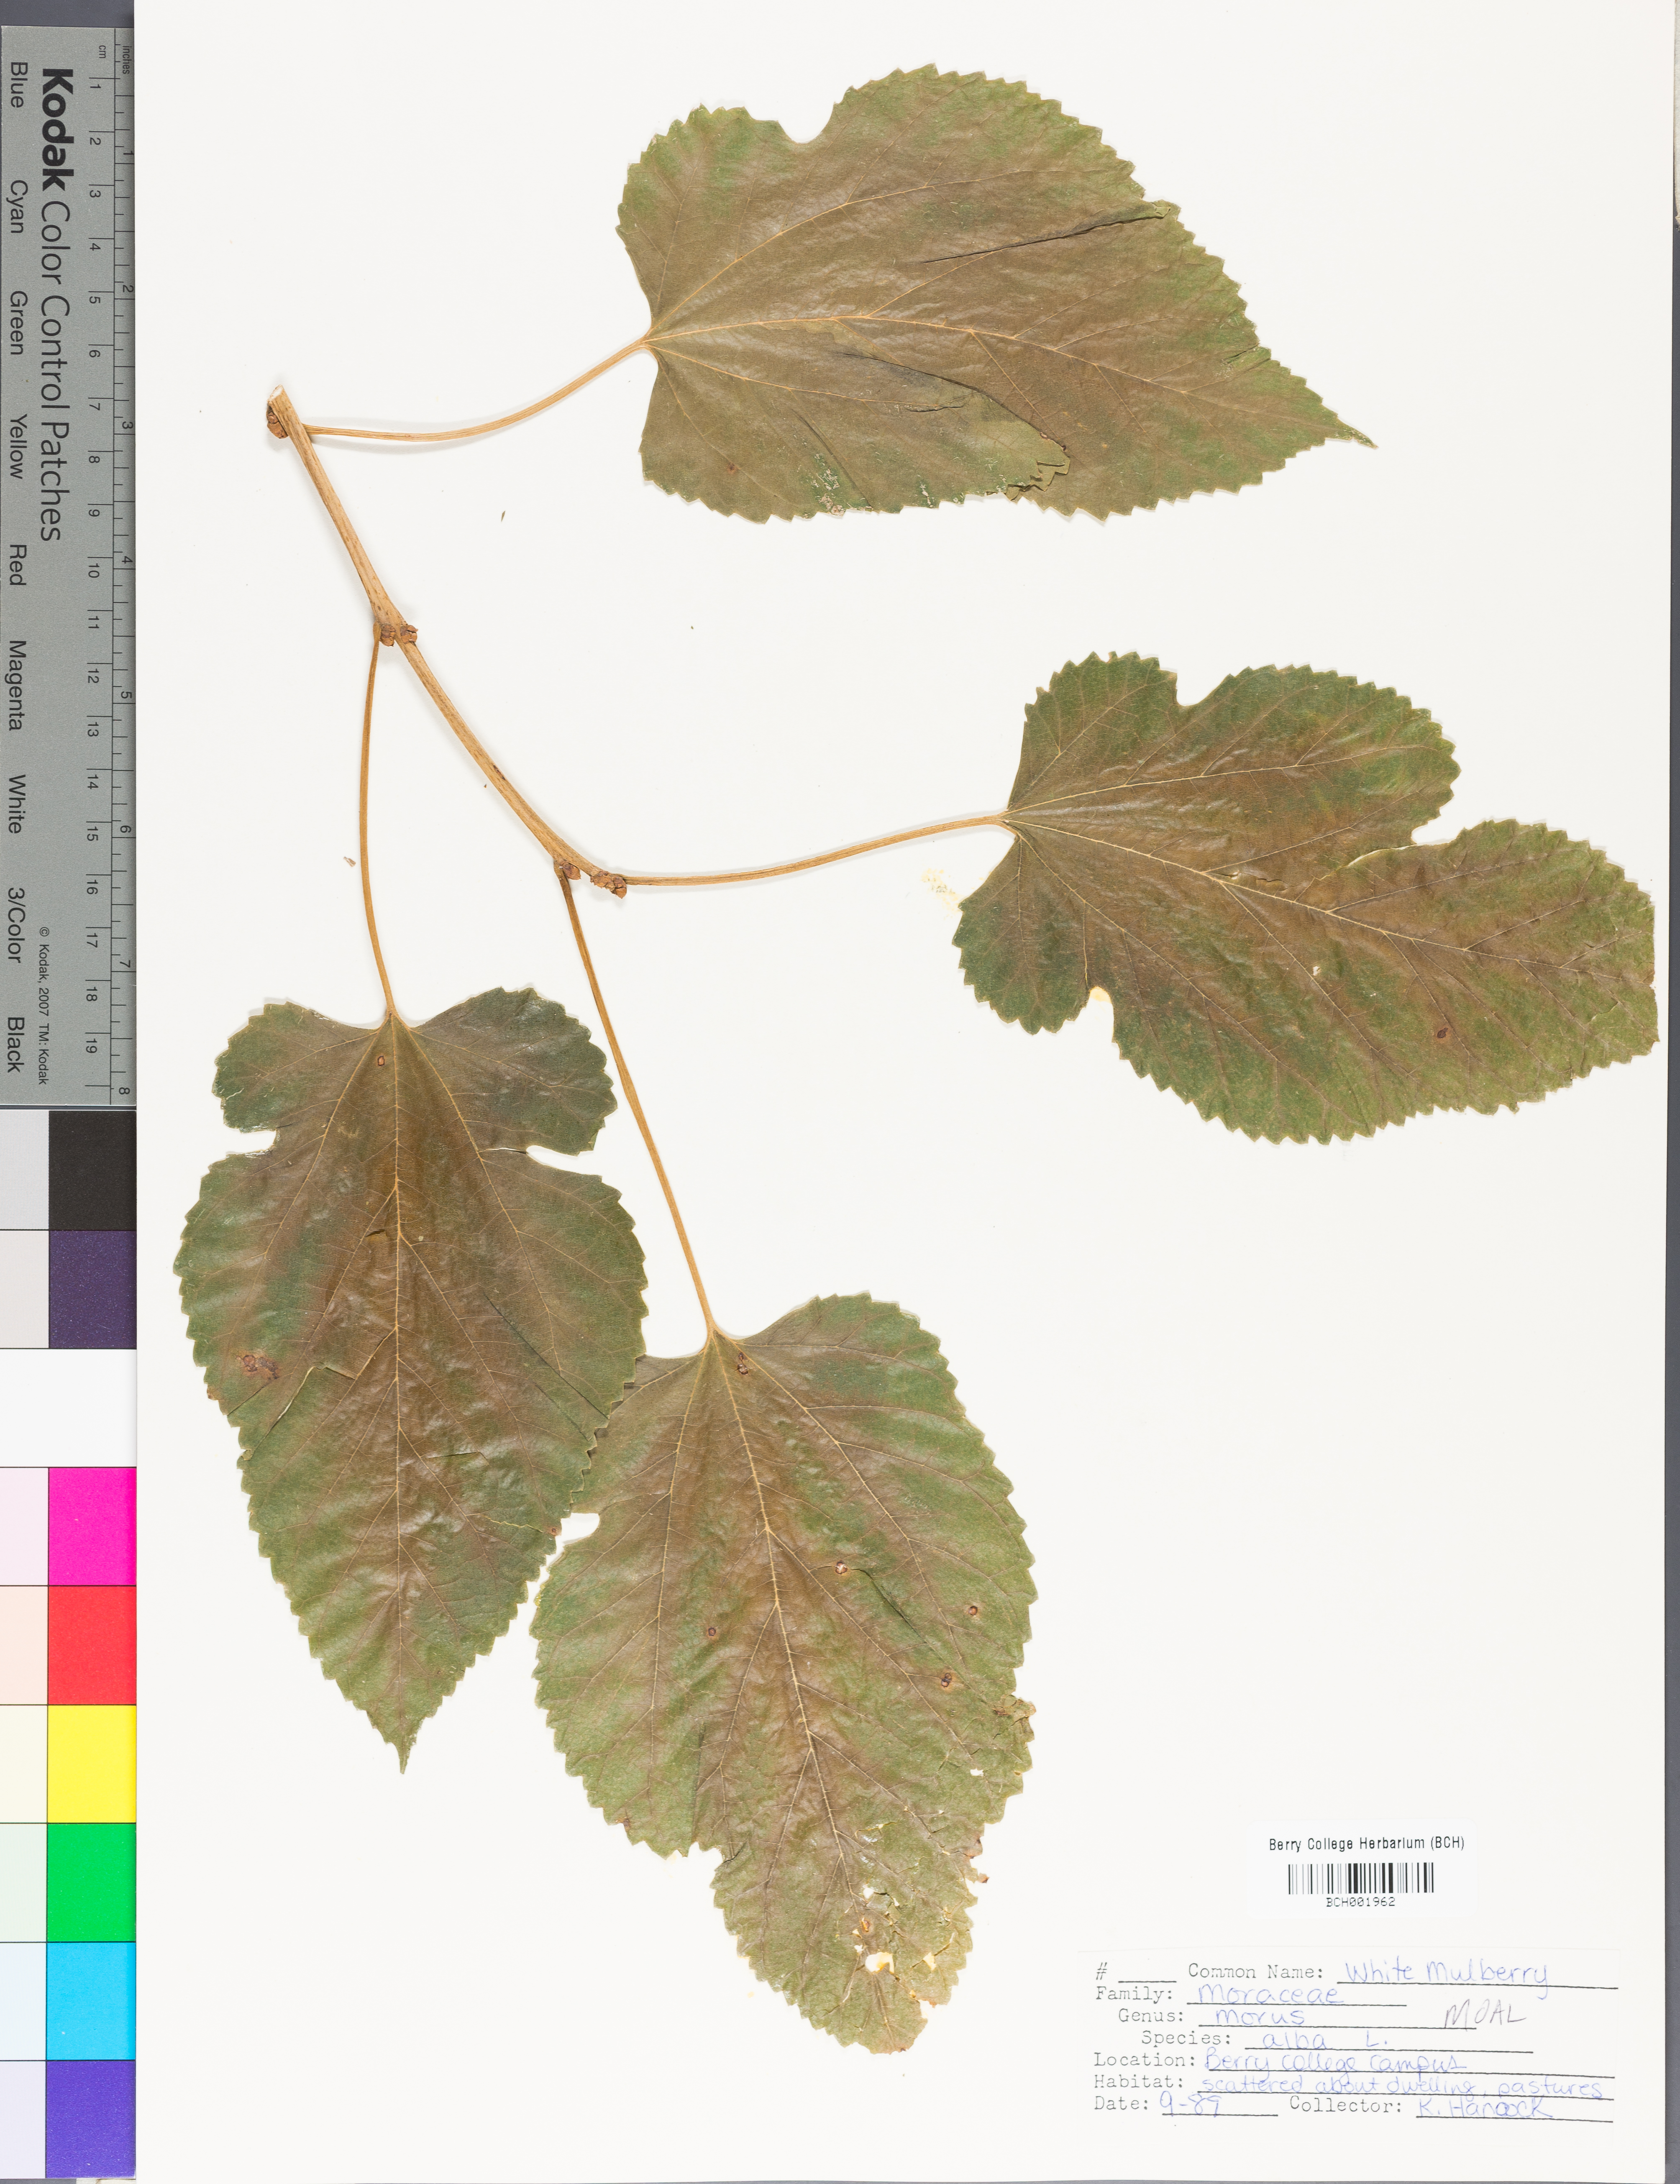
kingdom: Plantae
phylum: Tracheophyta
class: Magnoliopsida
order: Rosales
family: Moraceae
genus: Morus
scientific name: Morus alba
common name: White mulberry
